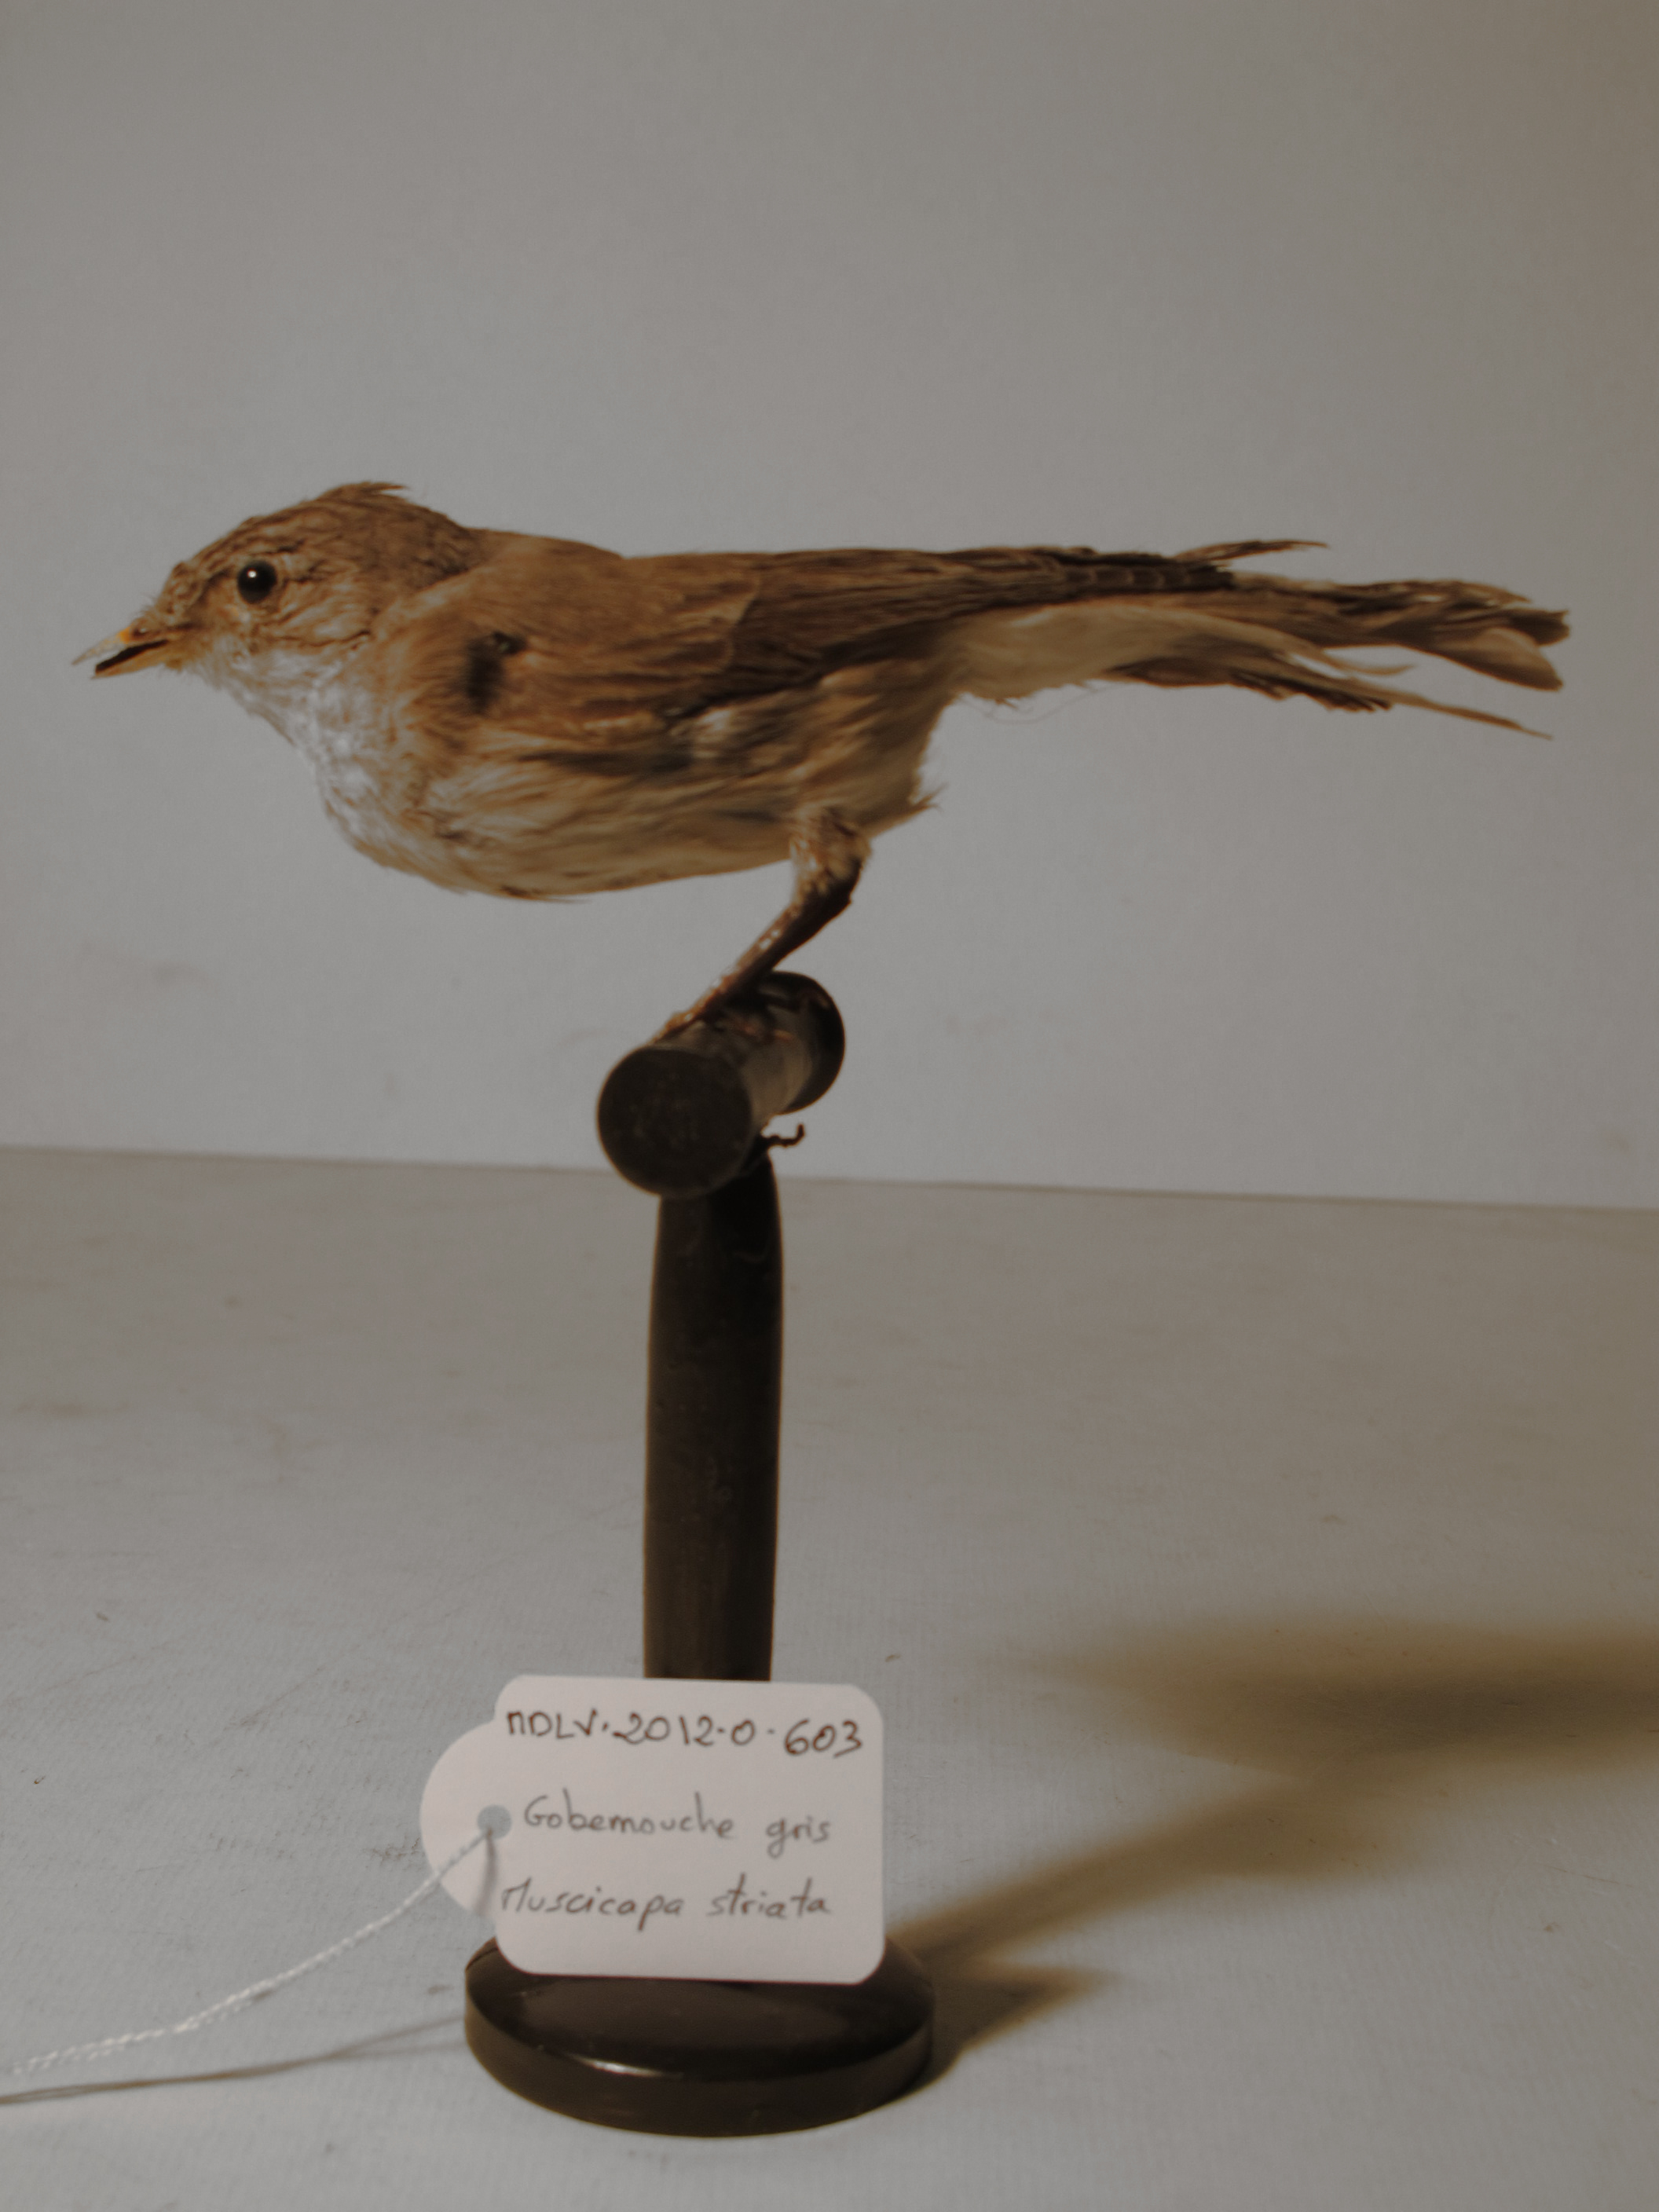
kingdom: Animalia
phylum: Chordata
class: Aves
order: Passeriformes
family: Muscicapidae
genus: Muscicapa
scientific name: Muscicapa striata
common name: Spotted Flycatcher
